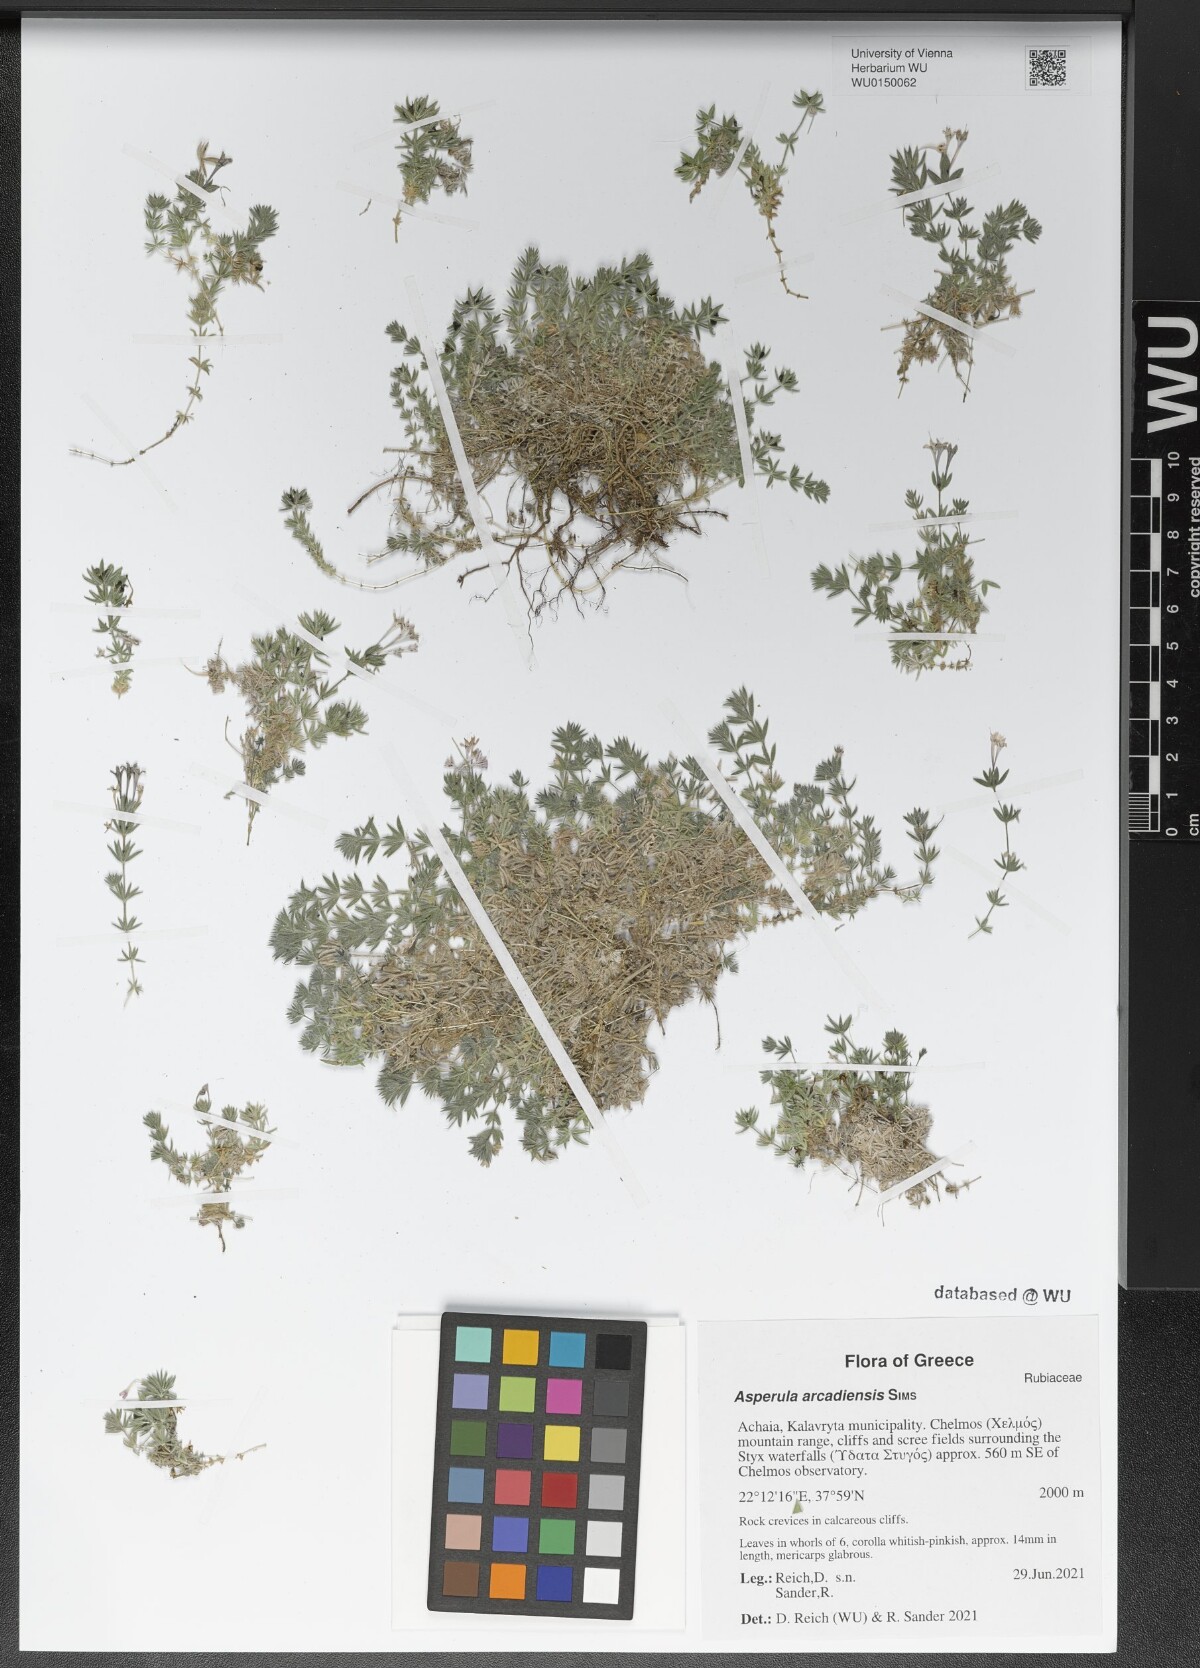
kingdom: Plantae
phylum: Tracheophyta
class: Magnoliopsida
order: Gentianales
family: Rubiaceae
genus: Hexaphylla
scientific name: Hexaphylla arcadiensis
